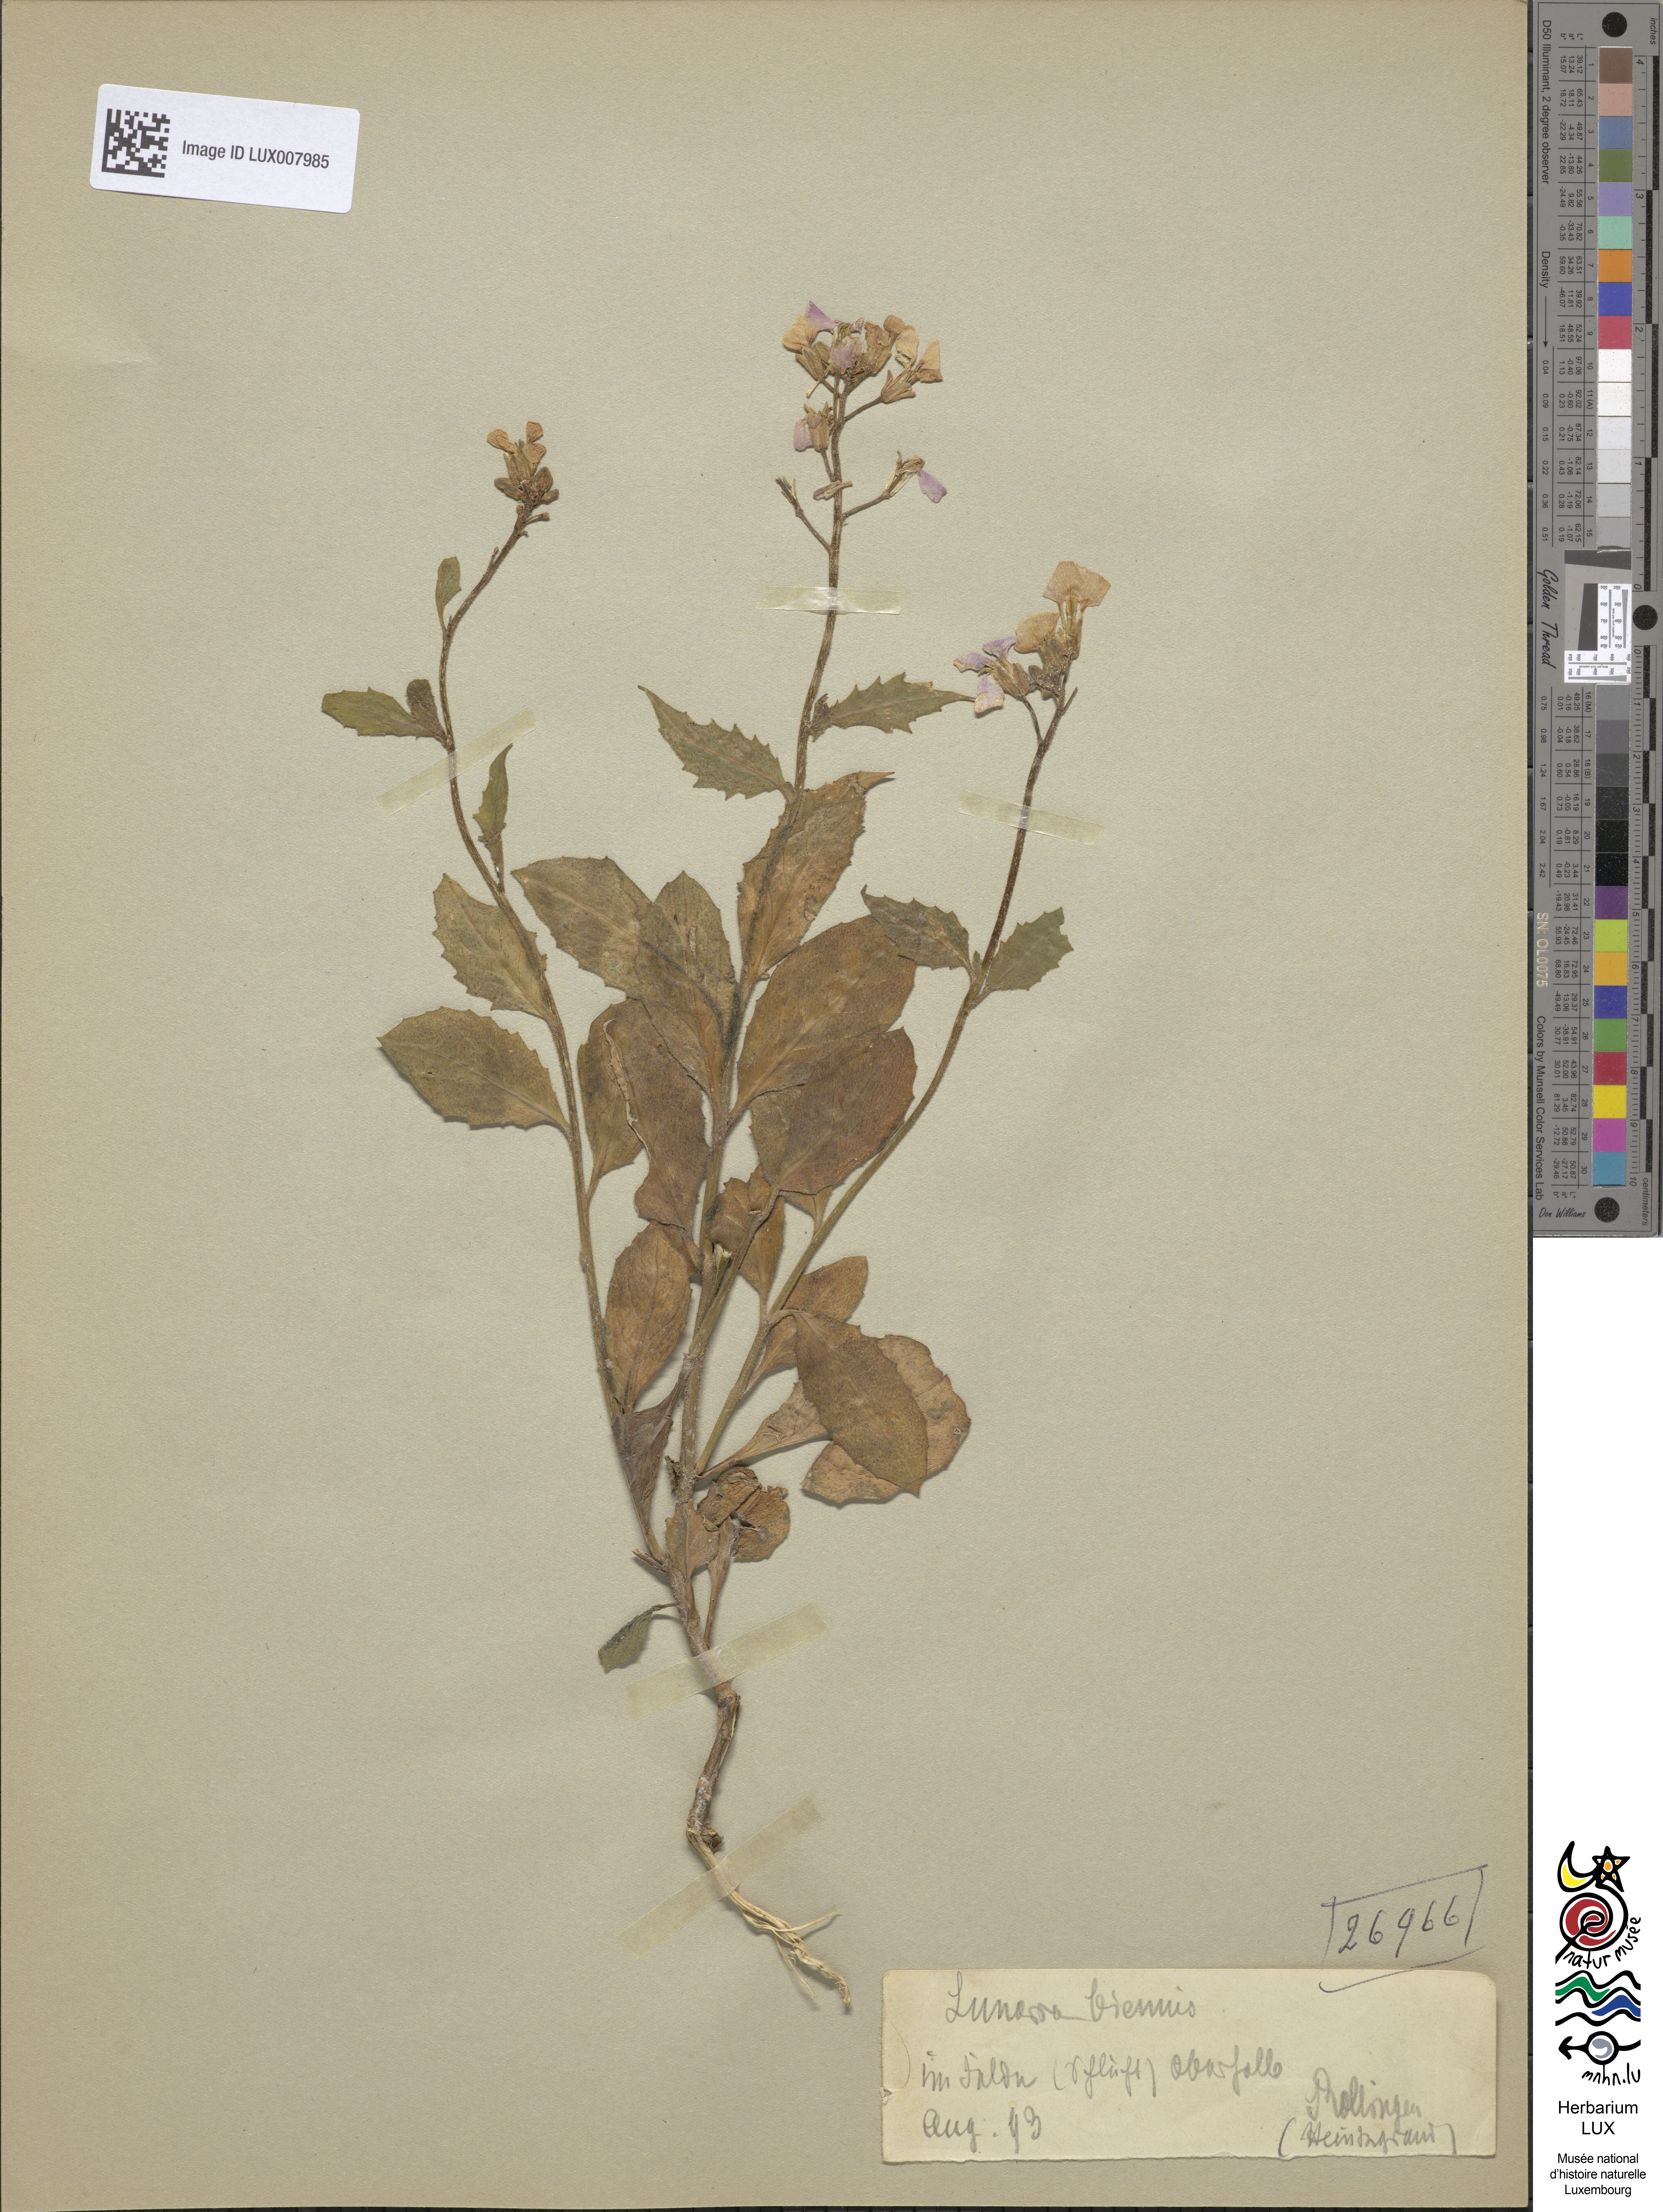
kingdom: Plantae
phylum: Tracheophyta
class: Magnoliopsida
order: Brassicales
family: Brassicaceae
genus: Lunaria
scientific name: Lunaria annua
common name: Honesty
